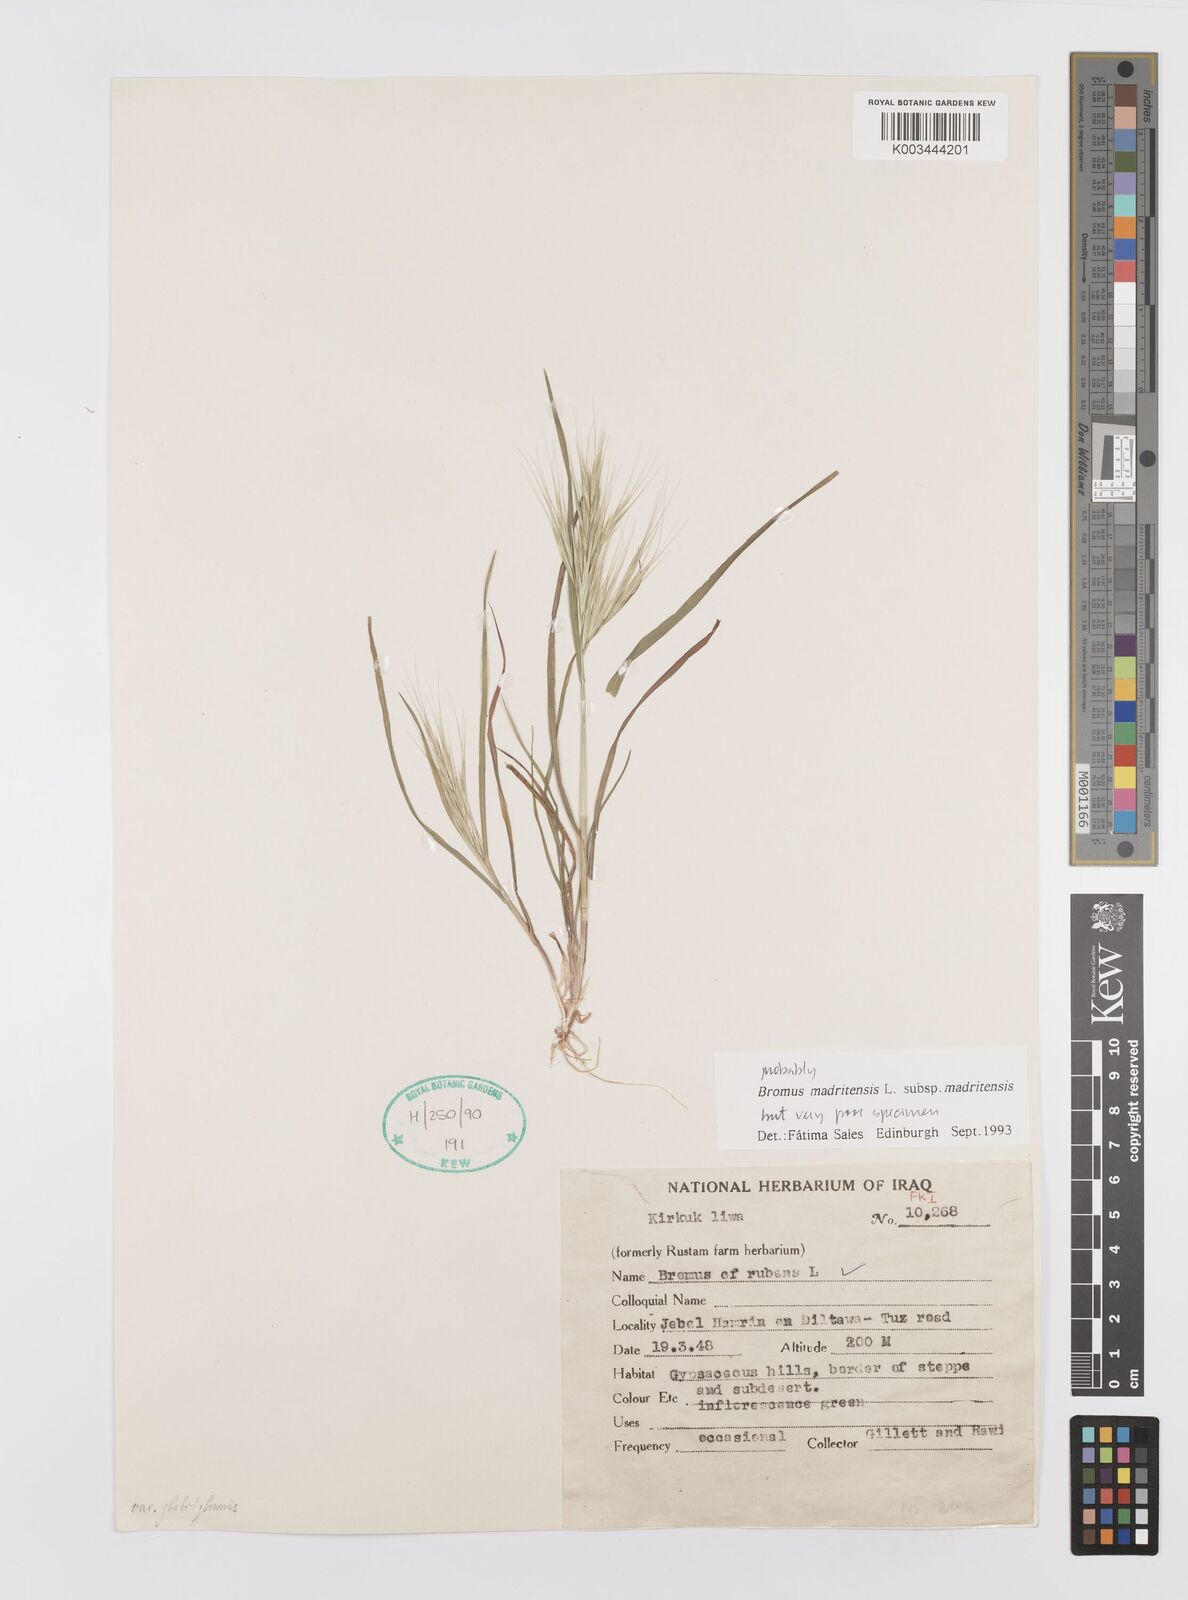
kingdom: Plantae
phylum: Tracheophyta
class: Liliopsida
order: Poales
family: Poaceae
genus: Bromus
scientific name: Bromus madritensis
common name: Compact brome
